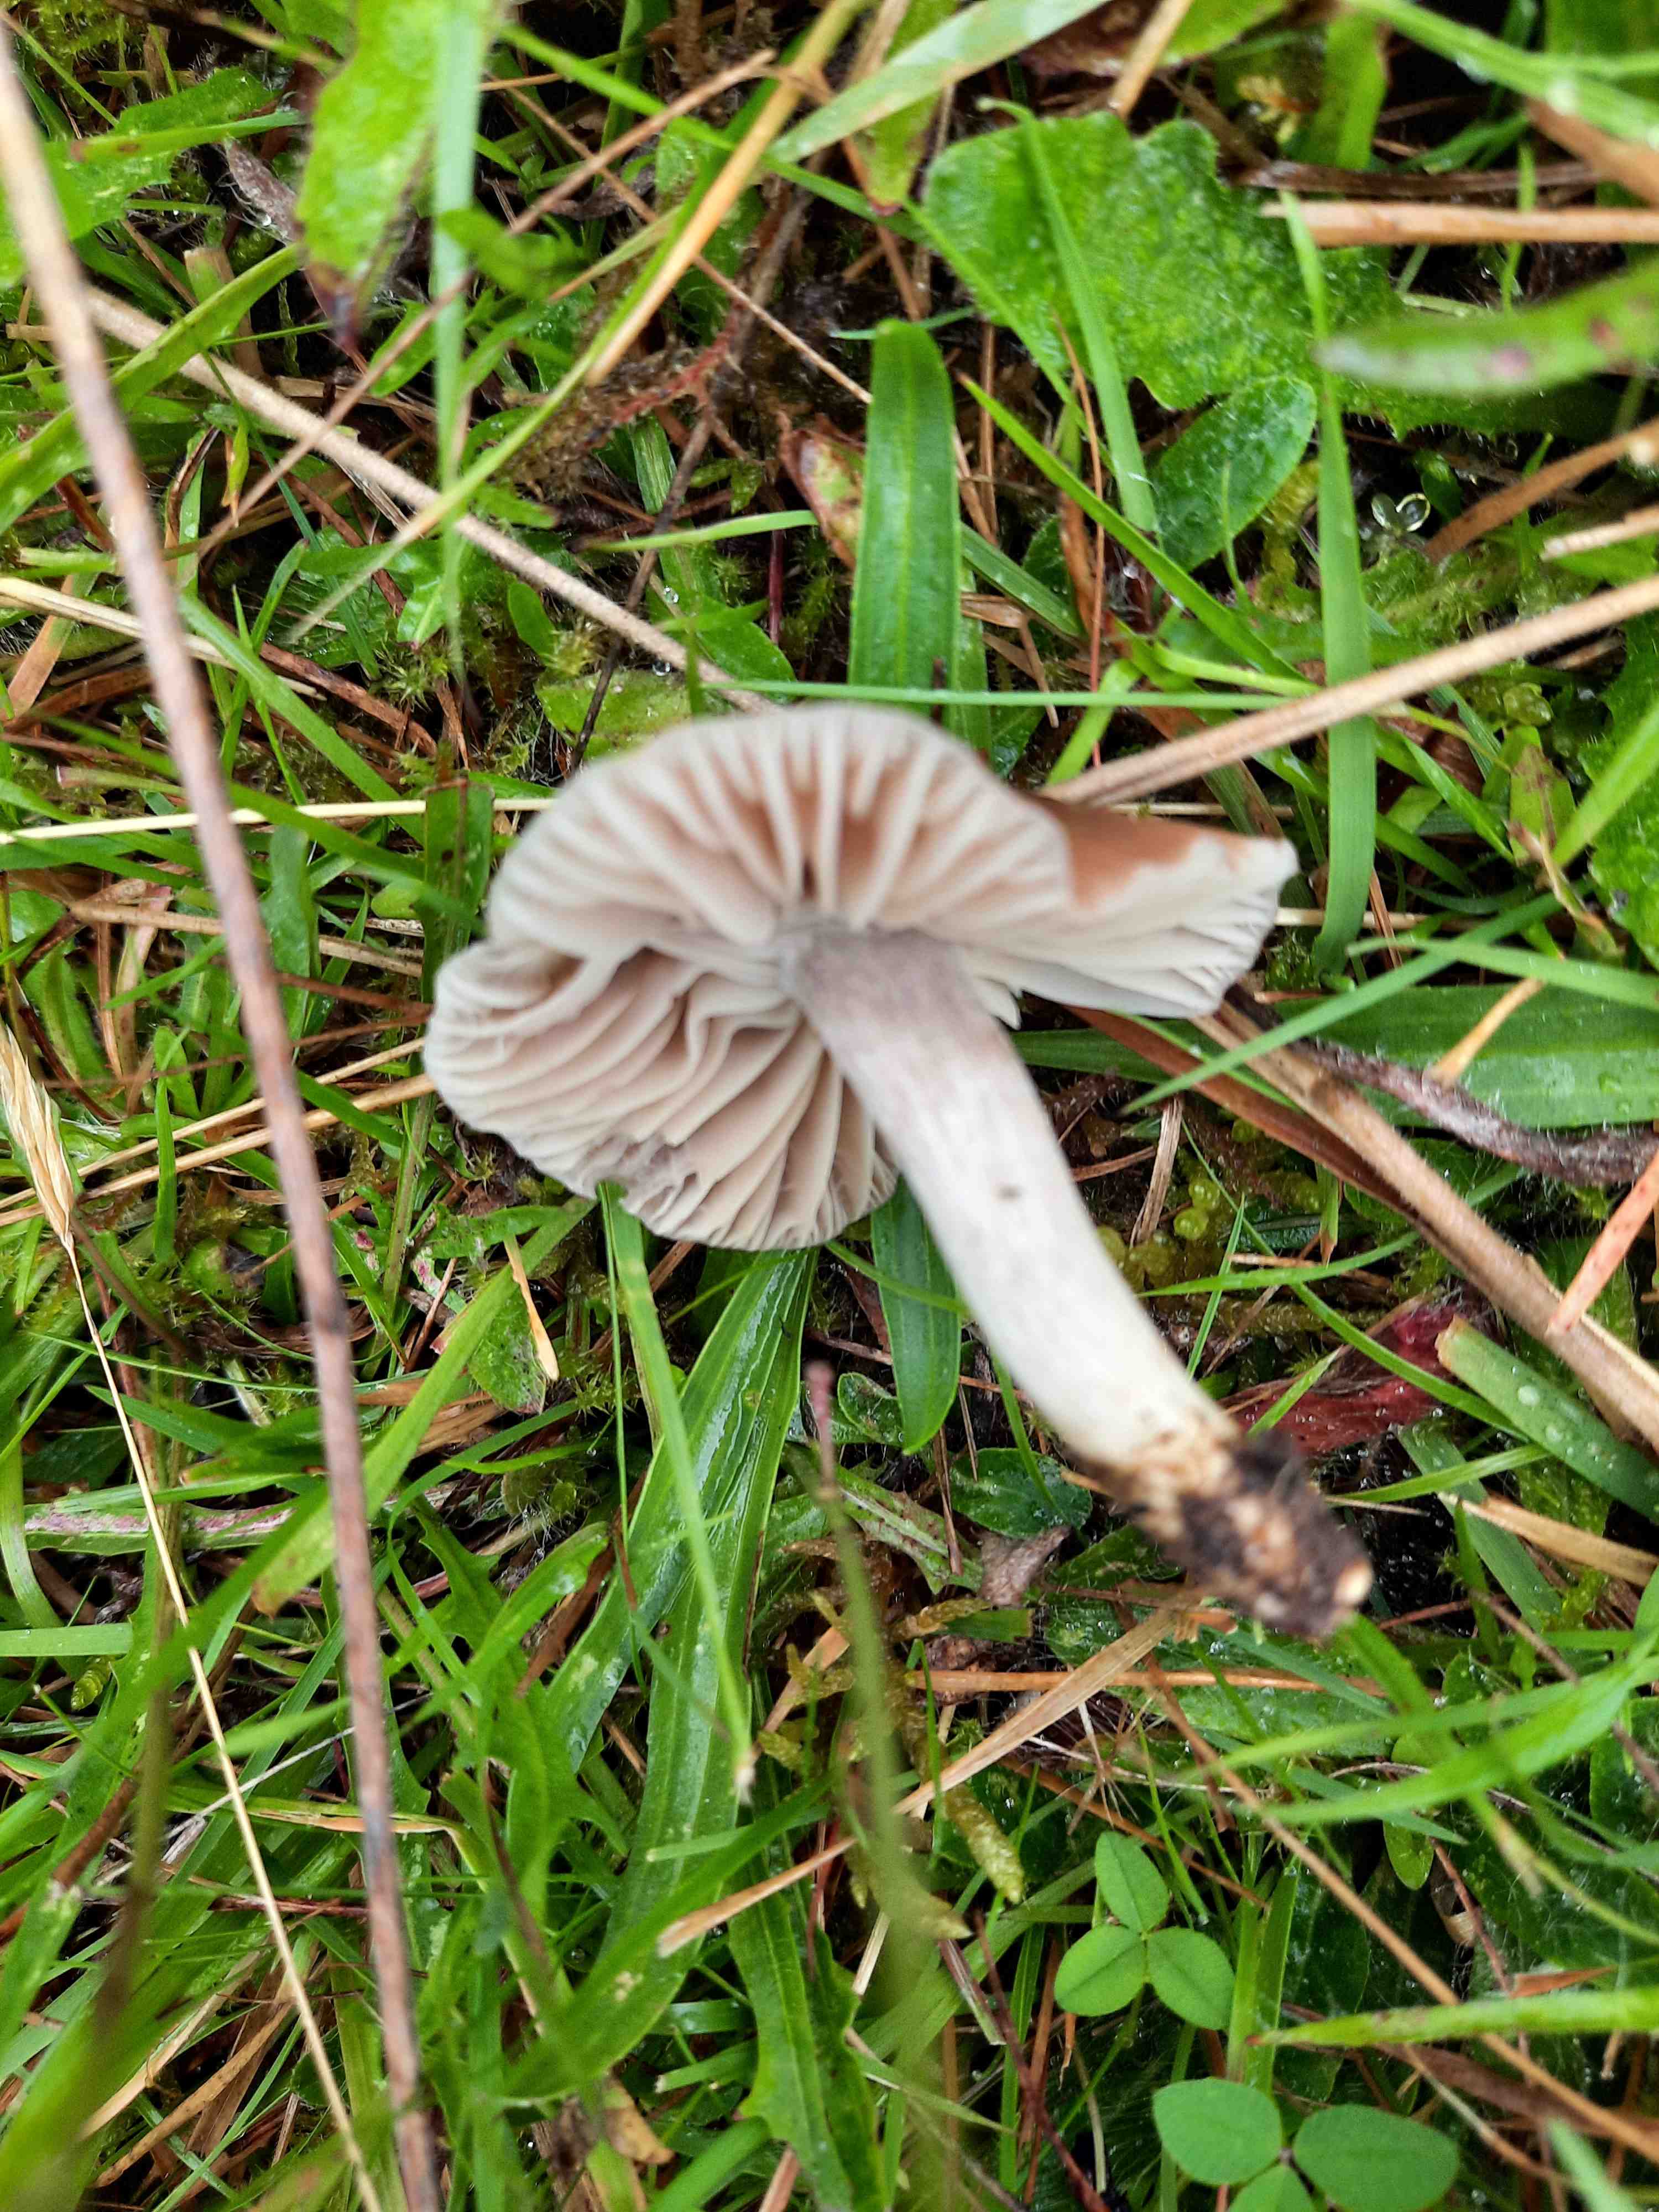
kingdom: Fungi
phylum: Basidiomycota
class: Agaricomycetes
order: Agaricales
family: Hygrophoraceae
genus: Cuphophyllus
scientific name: Cuphophyllus flavipesoides
